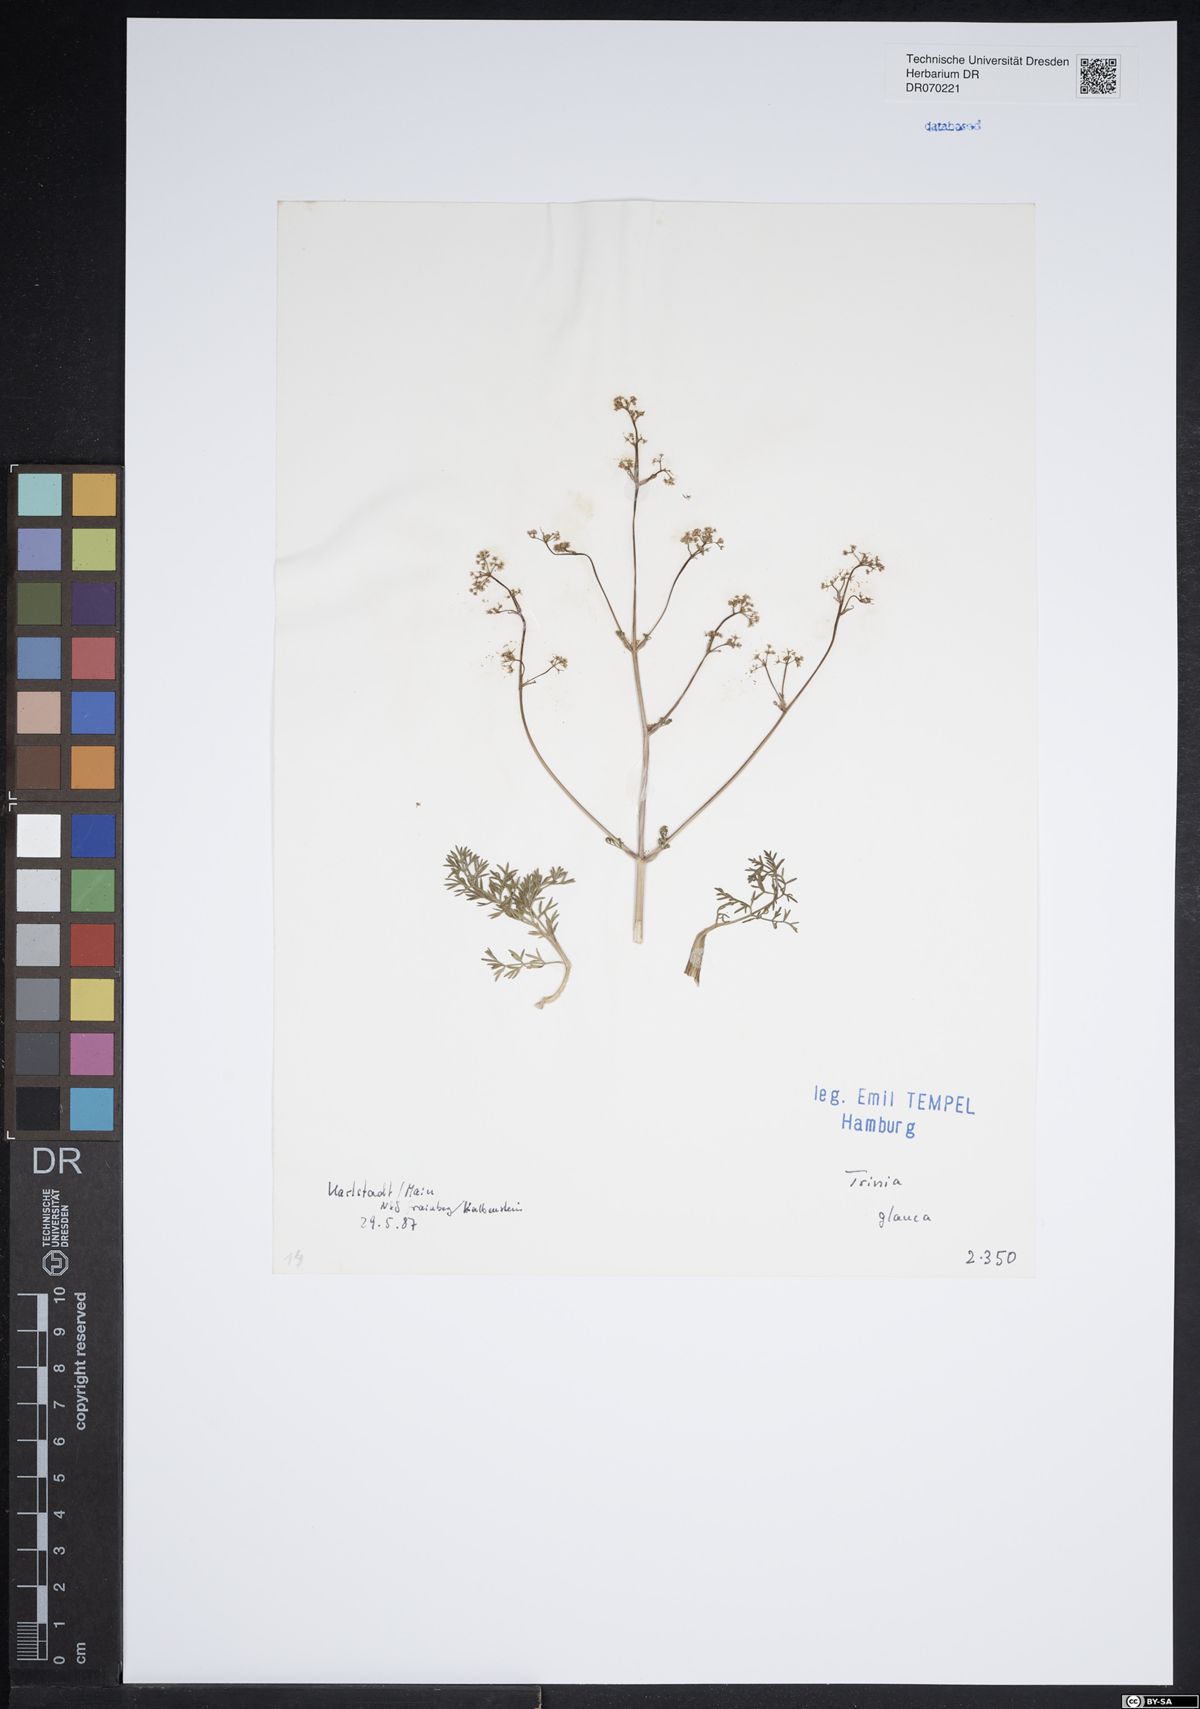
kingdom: Plantae
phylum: Tracheophyta
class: Magnoliopsida
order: Apiales
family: Apiaceae
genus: Trinia
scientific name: Trinia glauca
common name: Honewort
